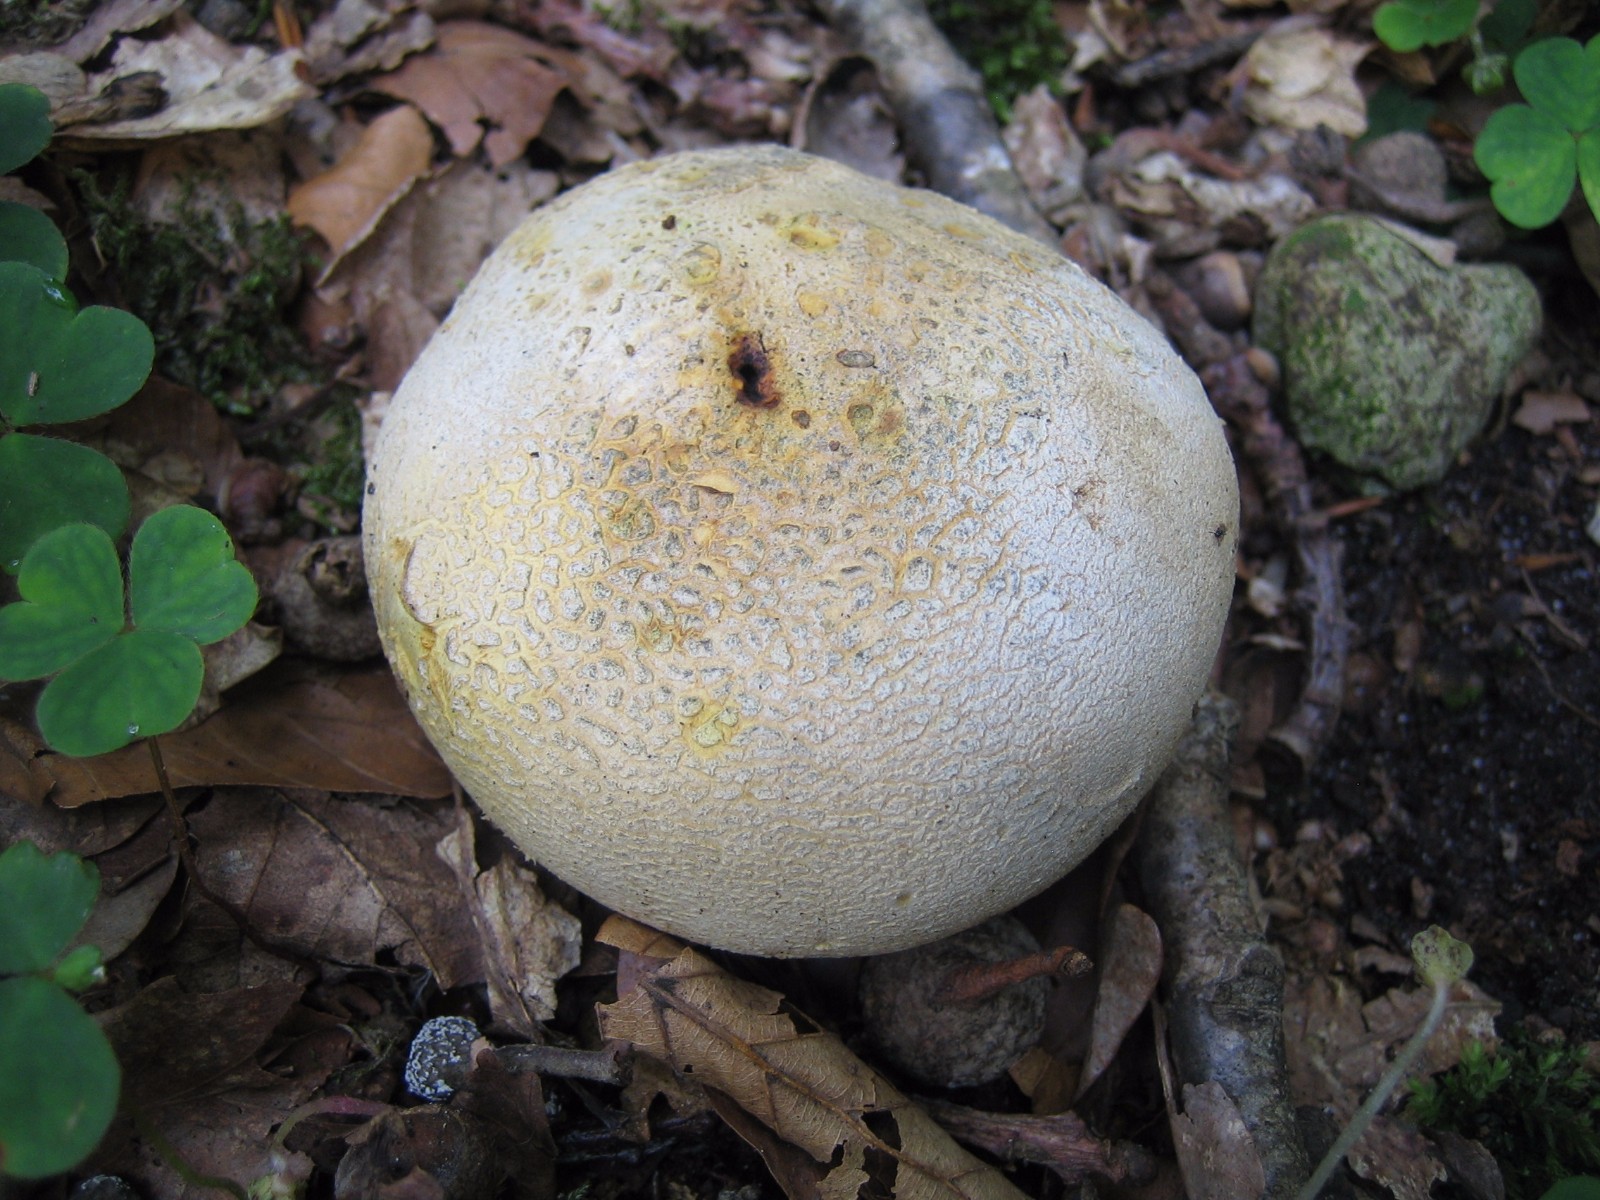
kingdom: Fungi
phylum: Basidiomycota
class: Agaricomycetes
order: Boletales
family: Sclerodermataceae
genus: Scleroderma
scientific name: Scleroderma citrinum
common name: almindelig bruskbold
